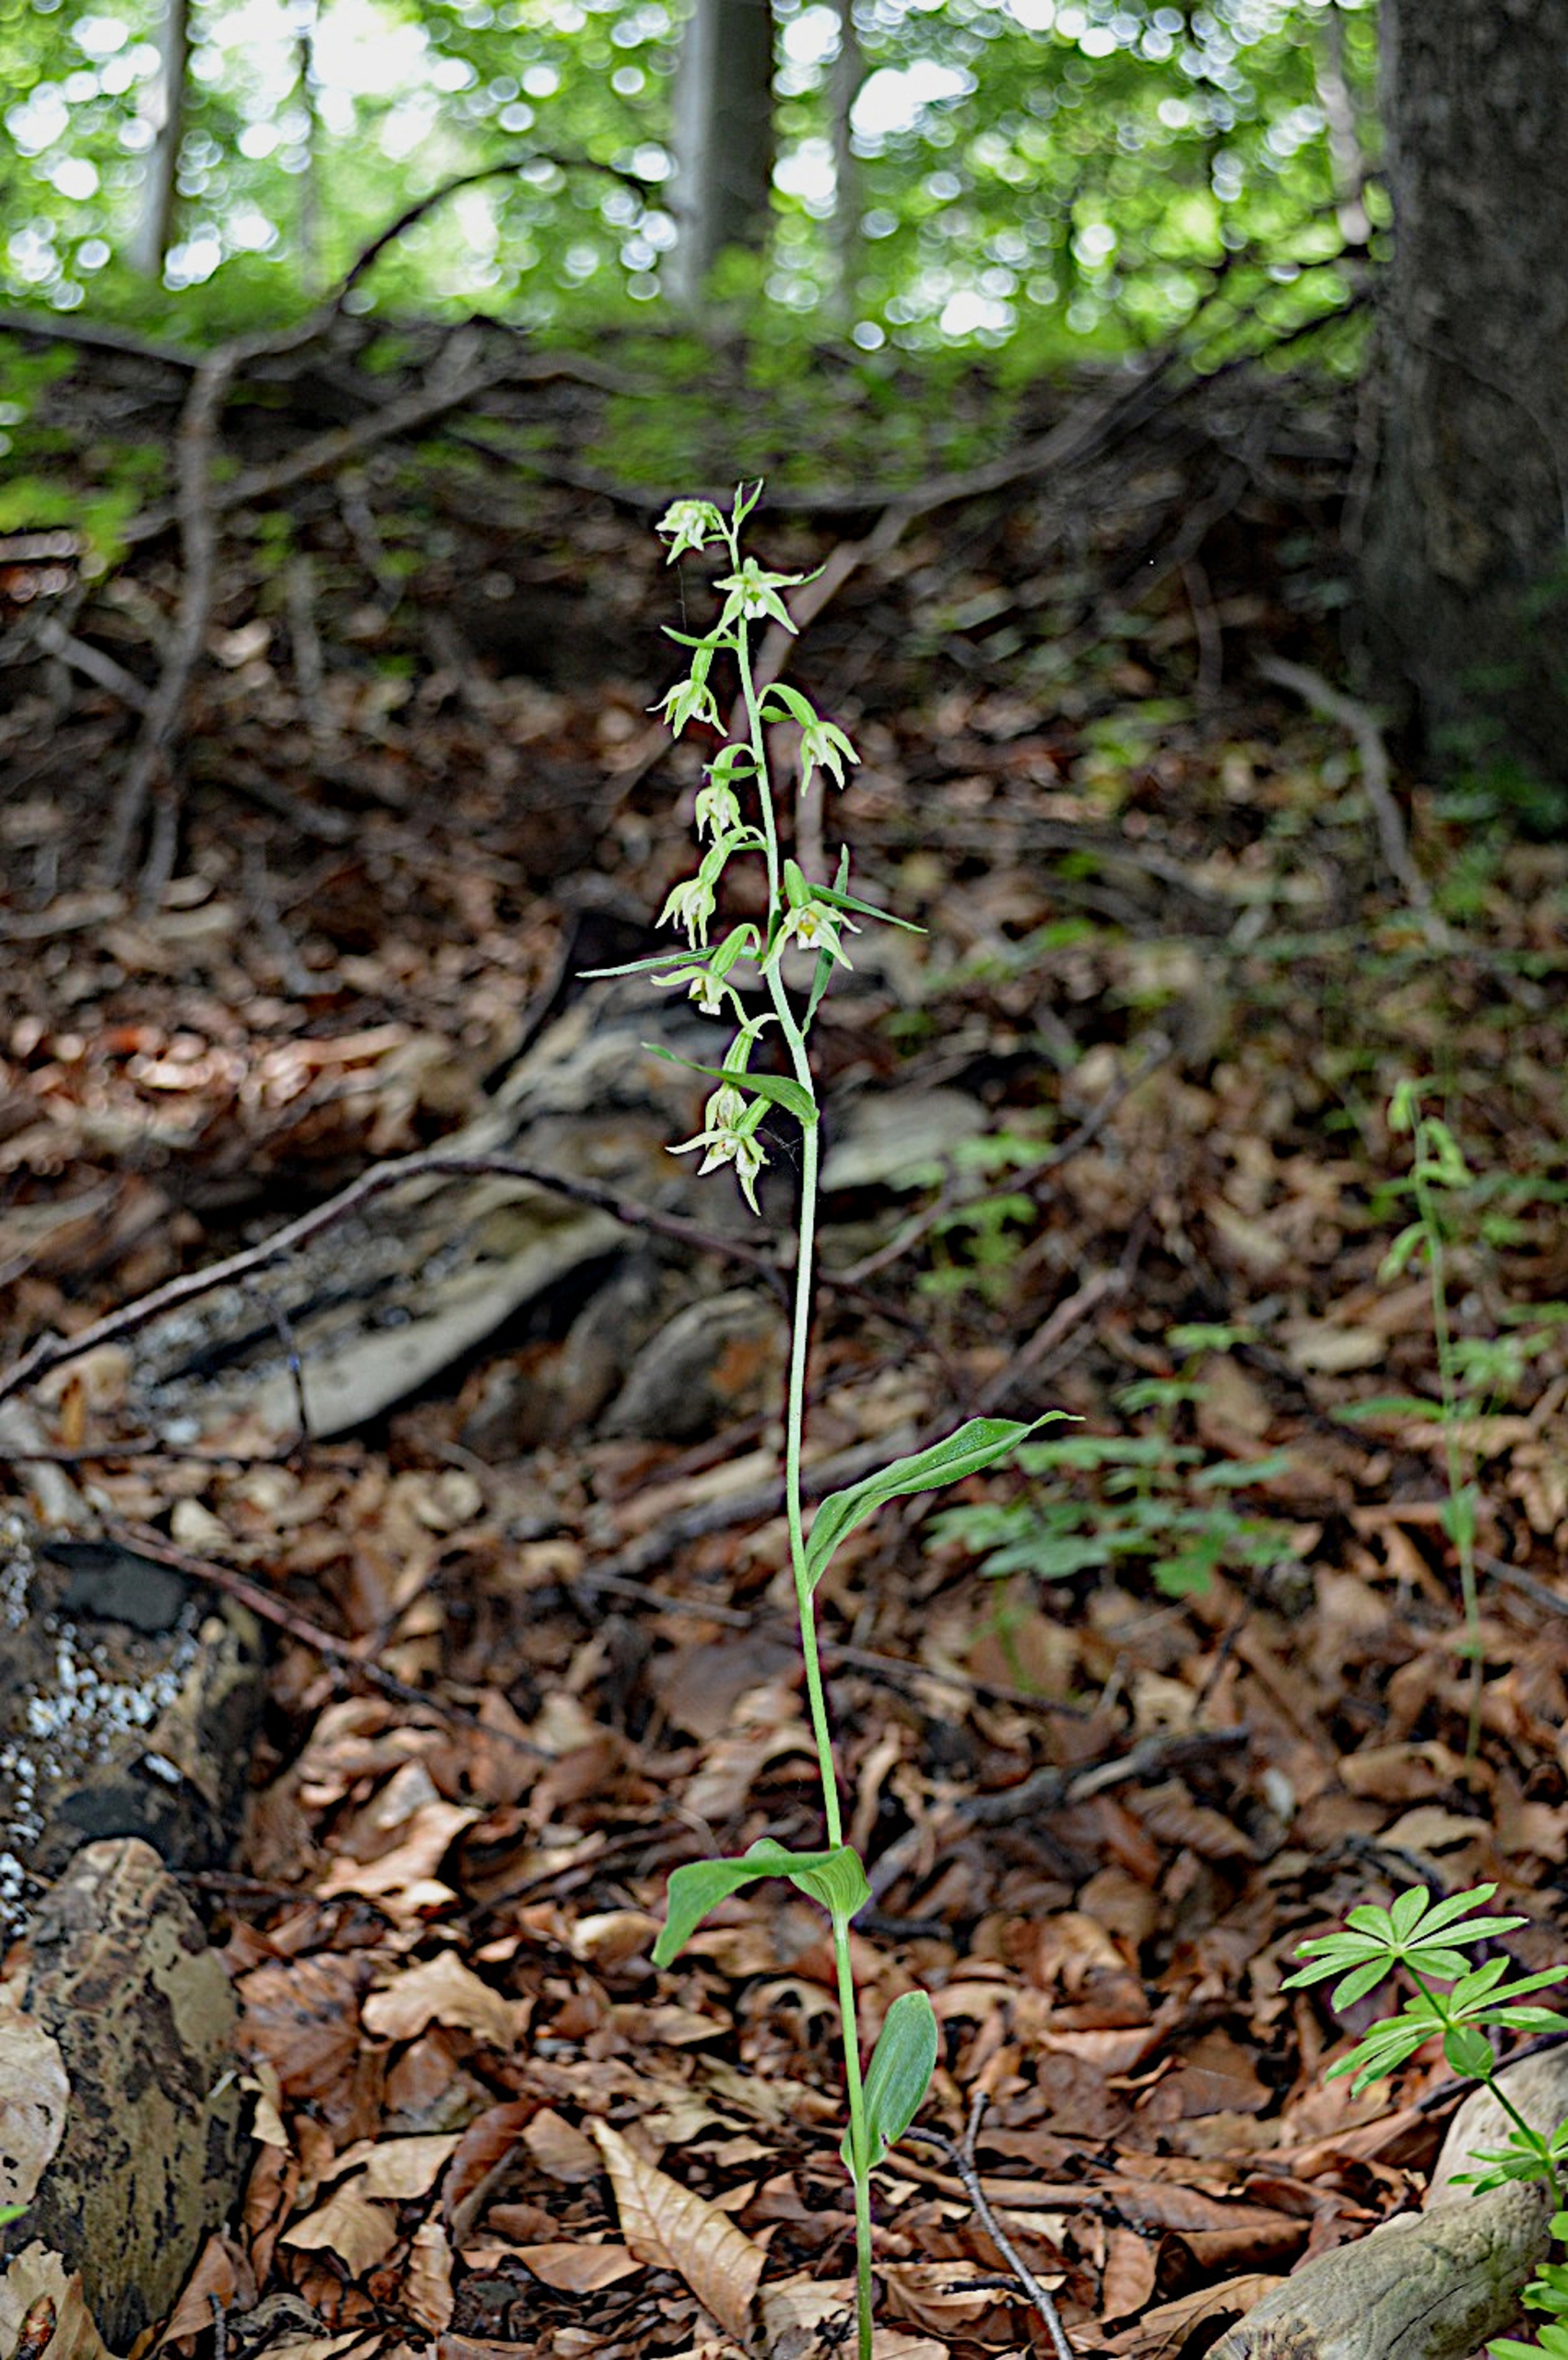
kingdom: Plantae
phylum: Tracheophyta
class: Liliopsida
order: Asparagales
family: Orchidaceae
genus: Epipactis
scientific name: Epipactis phyllanthes
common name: Nikkende hullæbe
